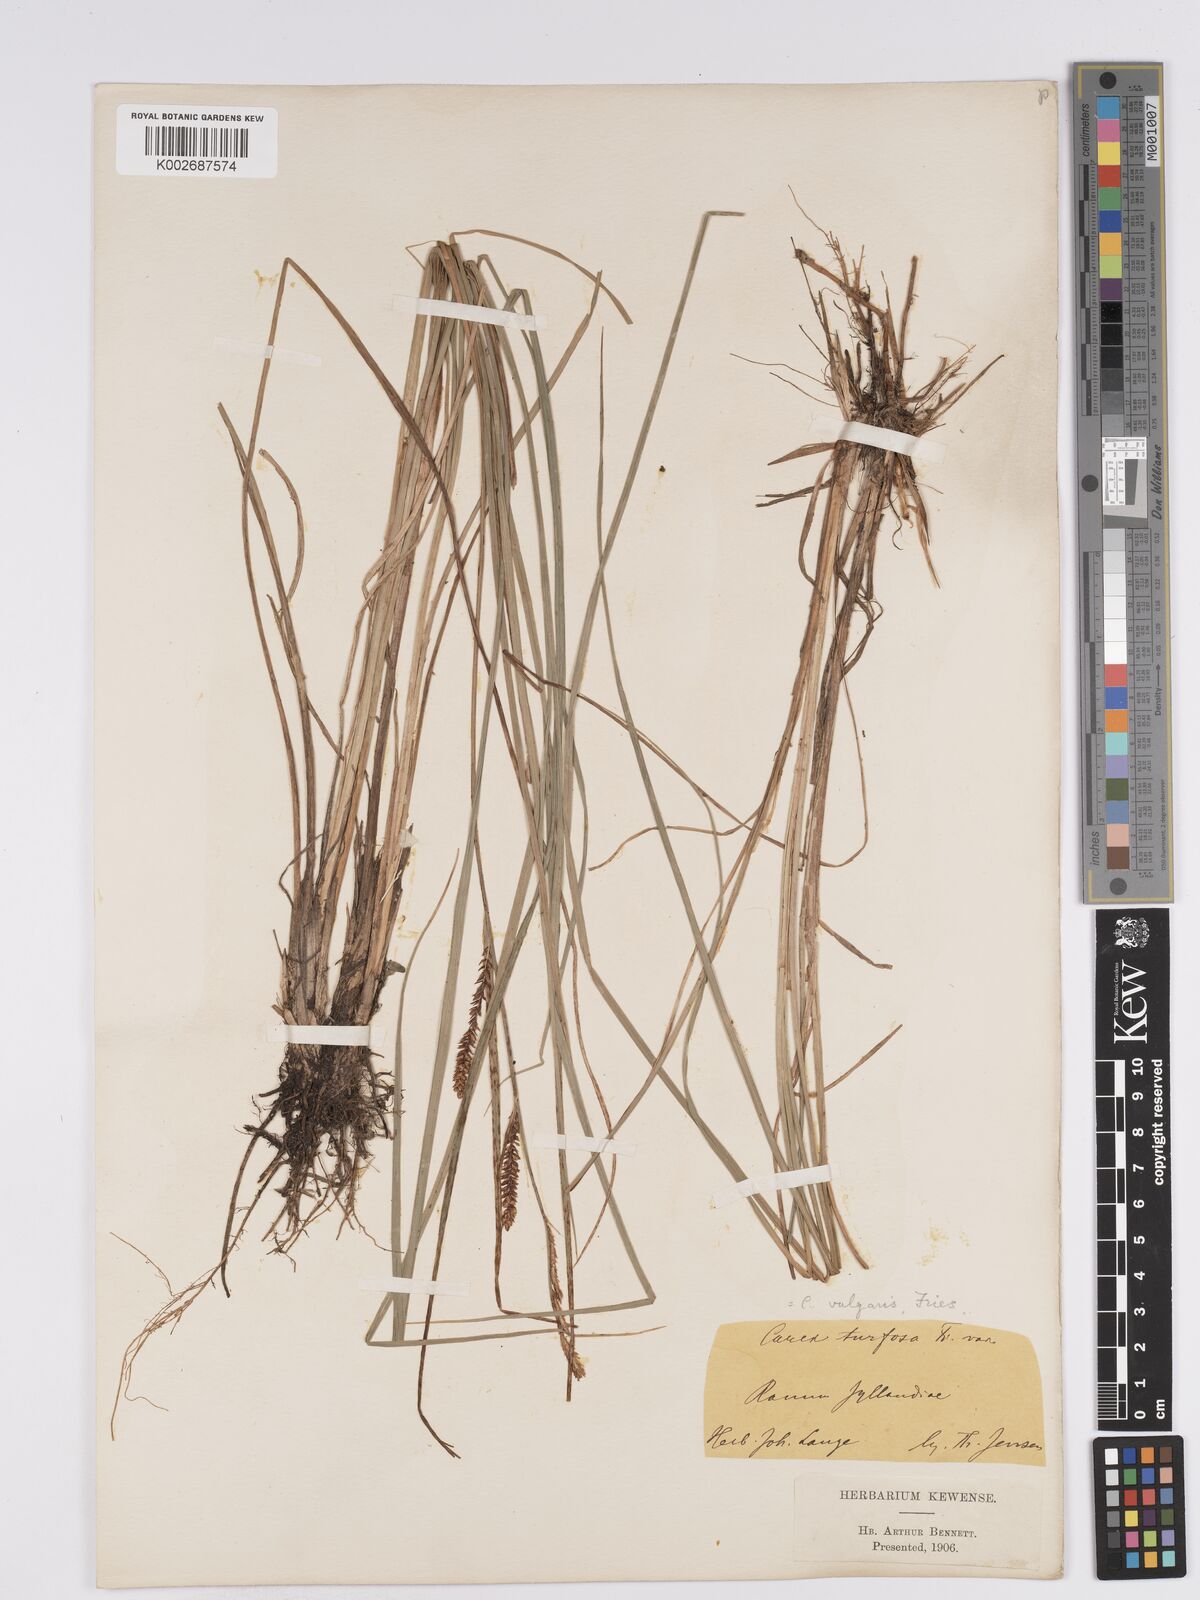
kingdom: Plantae
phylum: Tracheophyta
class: Liliopsida
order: Poales
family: Cyperaceae
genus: Carex
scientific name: Carex nigra
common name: Common sedge
